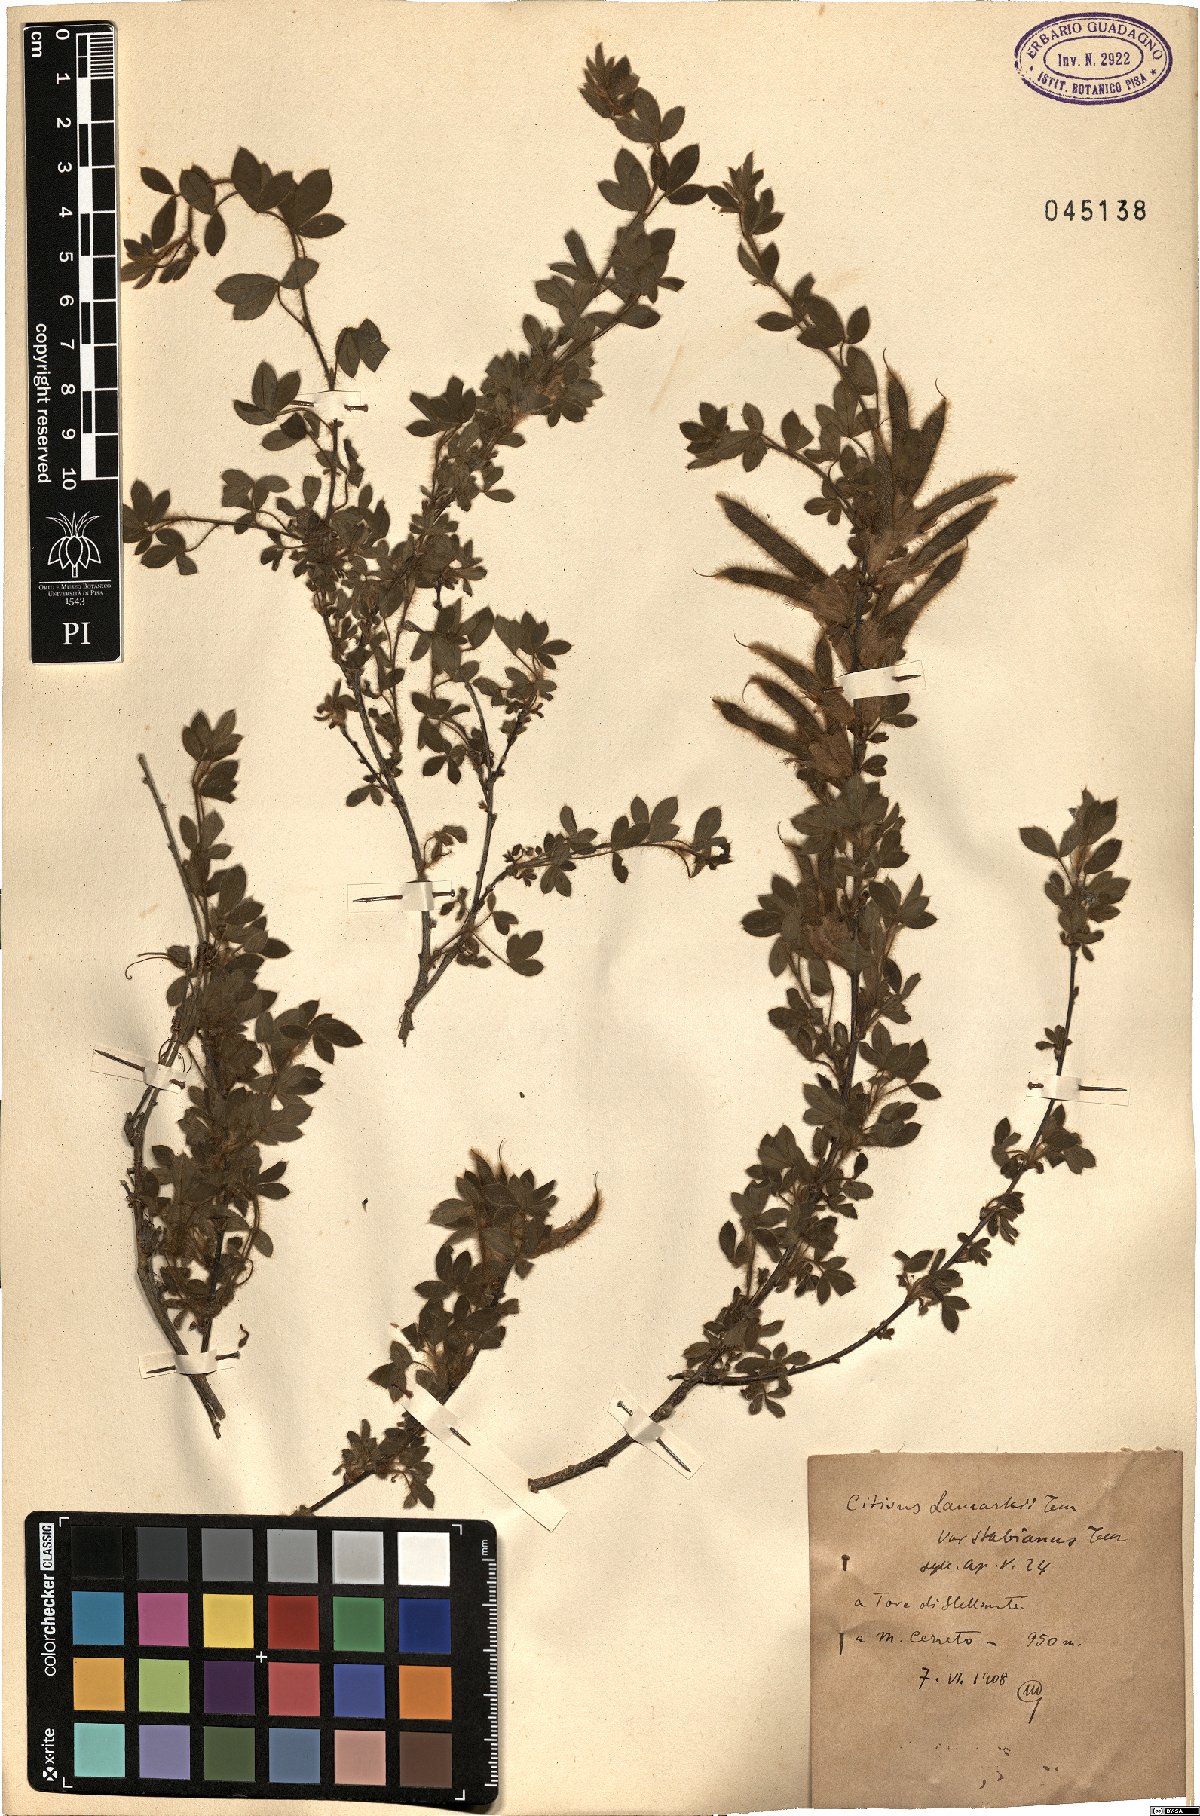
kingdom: Plantae
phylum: Tracheophyta
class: Magnoliopsida
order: Fabales
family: Fabaceae
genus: Chamaecytisus
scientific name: Chamaecytisus triflorus
